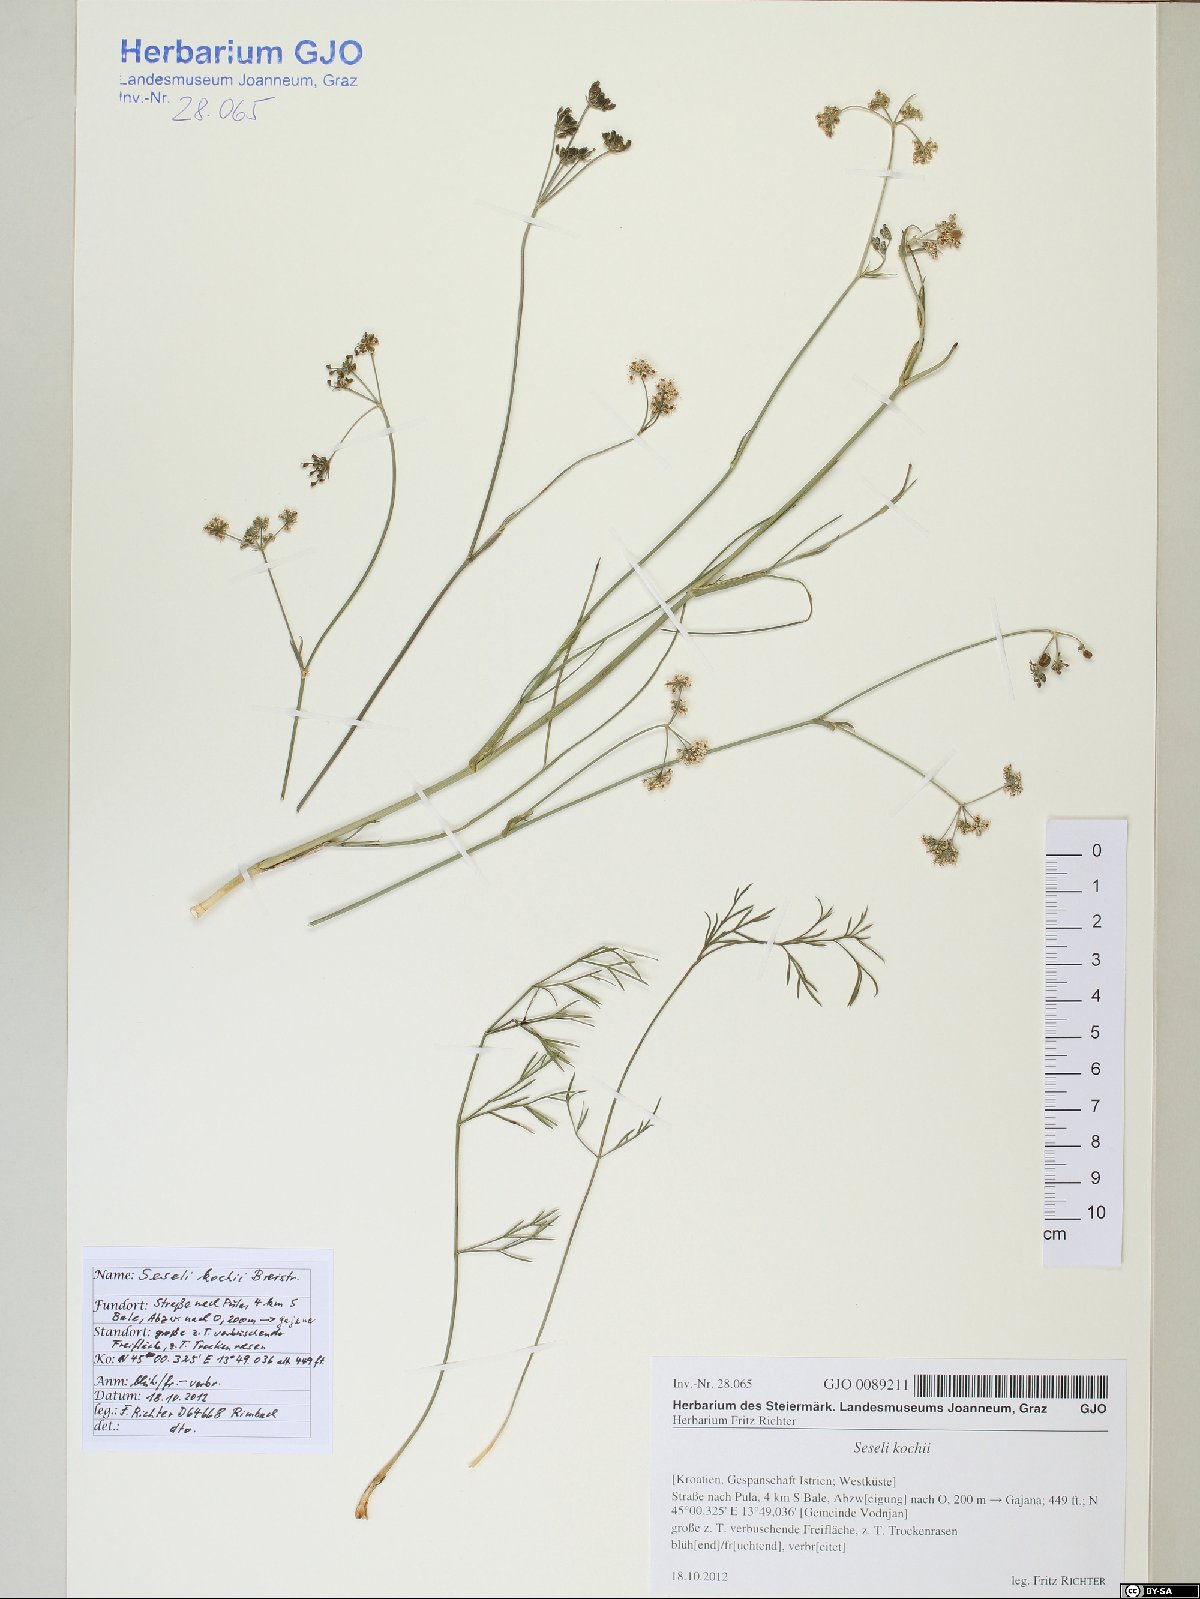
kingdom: Plantae
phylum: Tracheophyta
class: Magnoliopsida
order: Apiales
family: Apiaceae
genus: Seseli
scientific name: Seseli gouanii
